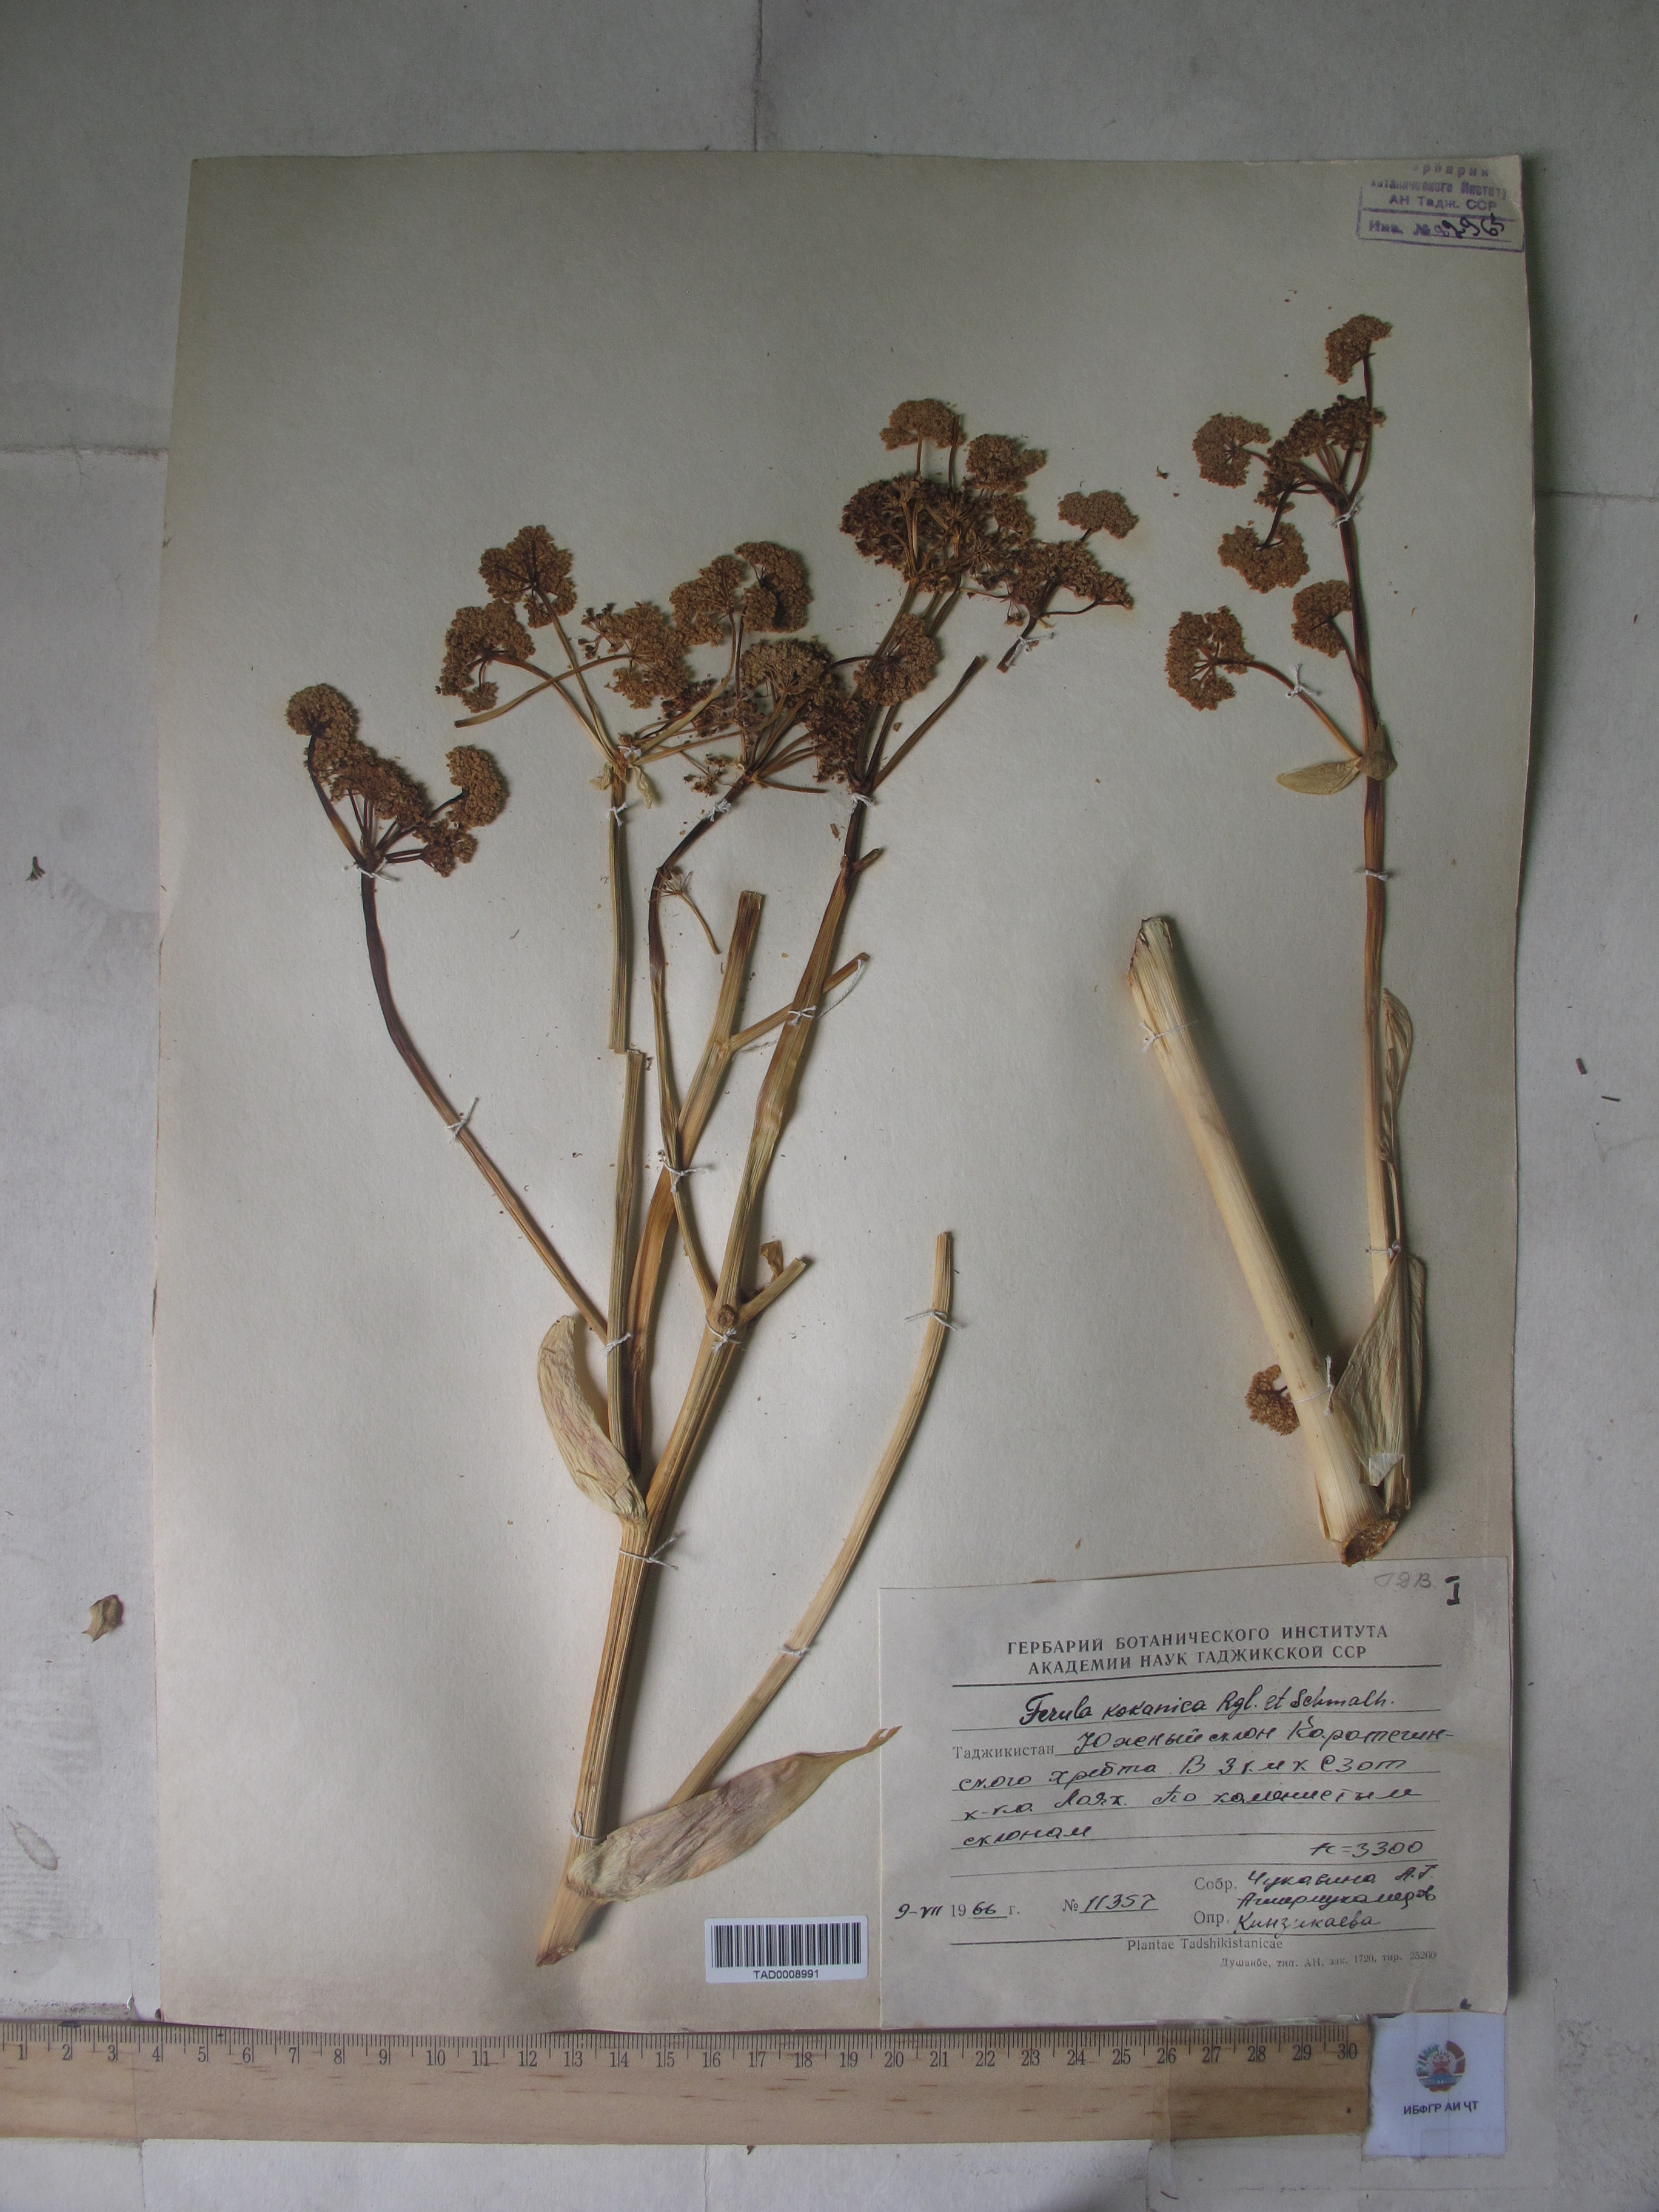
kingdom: Plantae
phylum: Tracheophyta
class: Magnoliopsida
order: Apiales
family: Apiaceae
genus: Ferula
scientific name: Ferula kokanica
